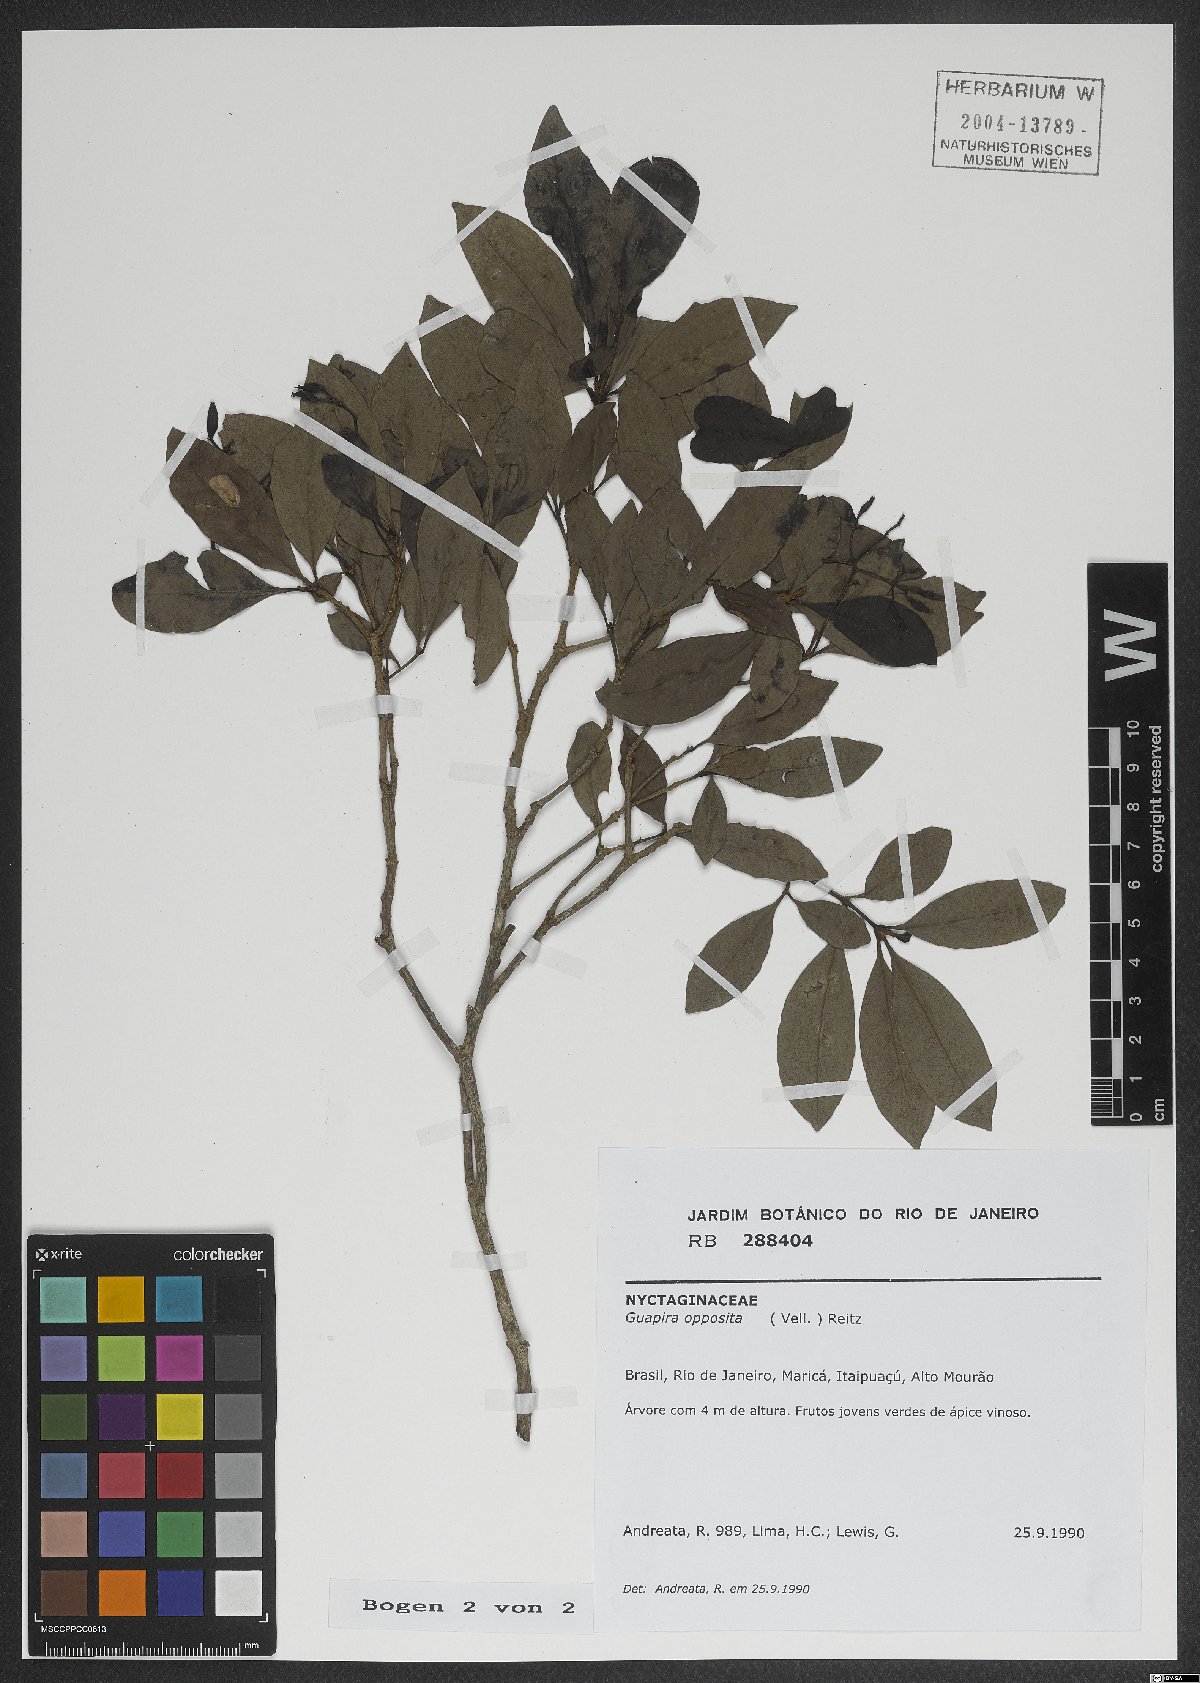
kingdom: Plantae
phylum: Tracheophyta
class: Magnoliopsida
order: Caryophyllales
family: Nyctaginaceae
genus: Guapira
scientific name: Guapira opposita
